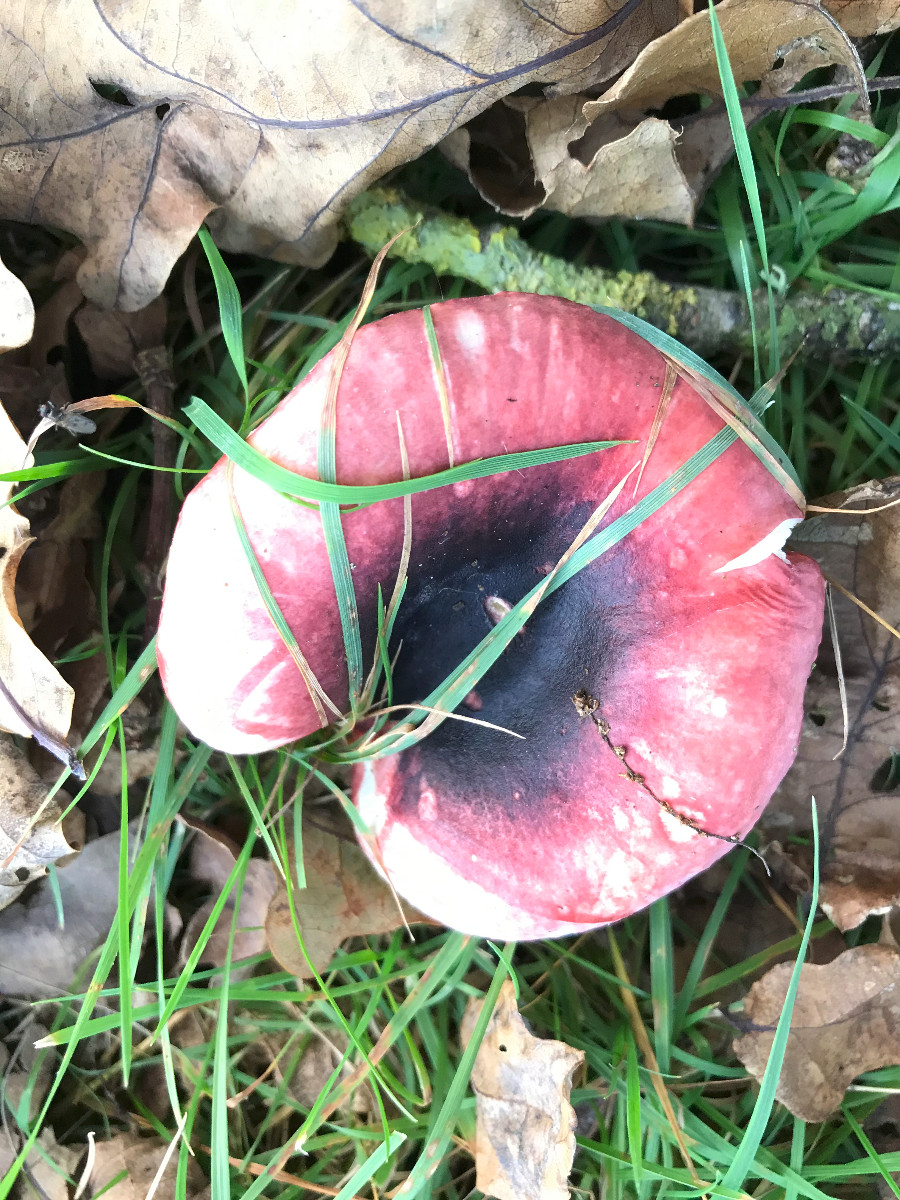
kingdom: Fungi
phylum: Basidiomycota
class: Agaricomycetes
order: Russulales
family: Russulaceae
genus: Russula
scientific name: Russula fragilis
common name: savbladet skørhat
